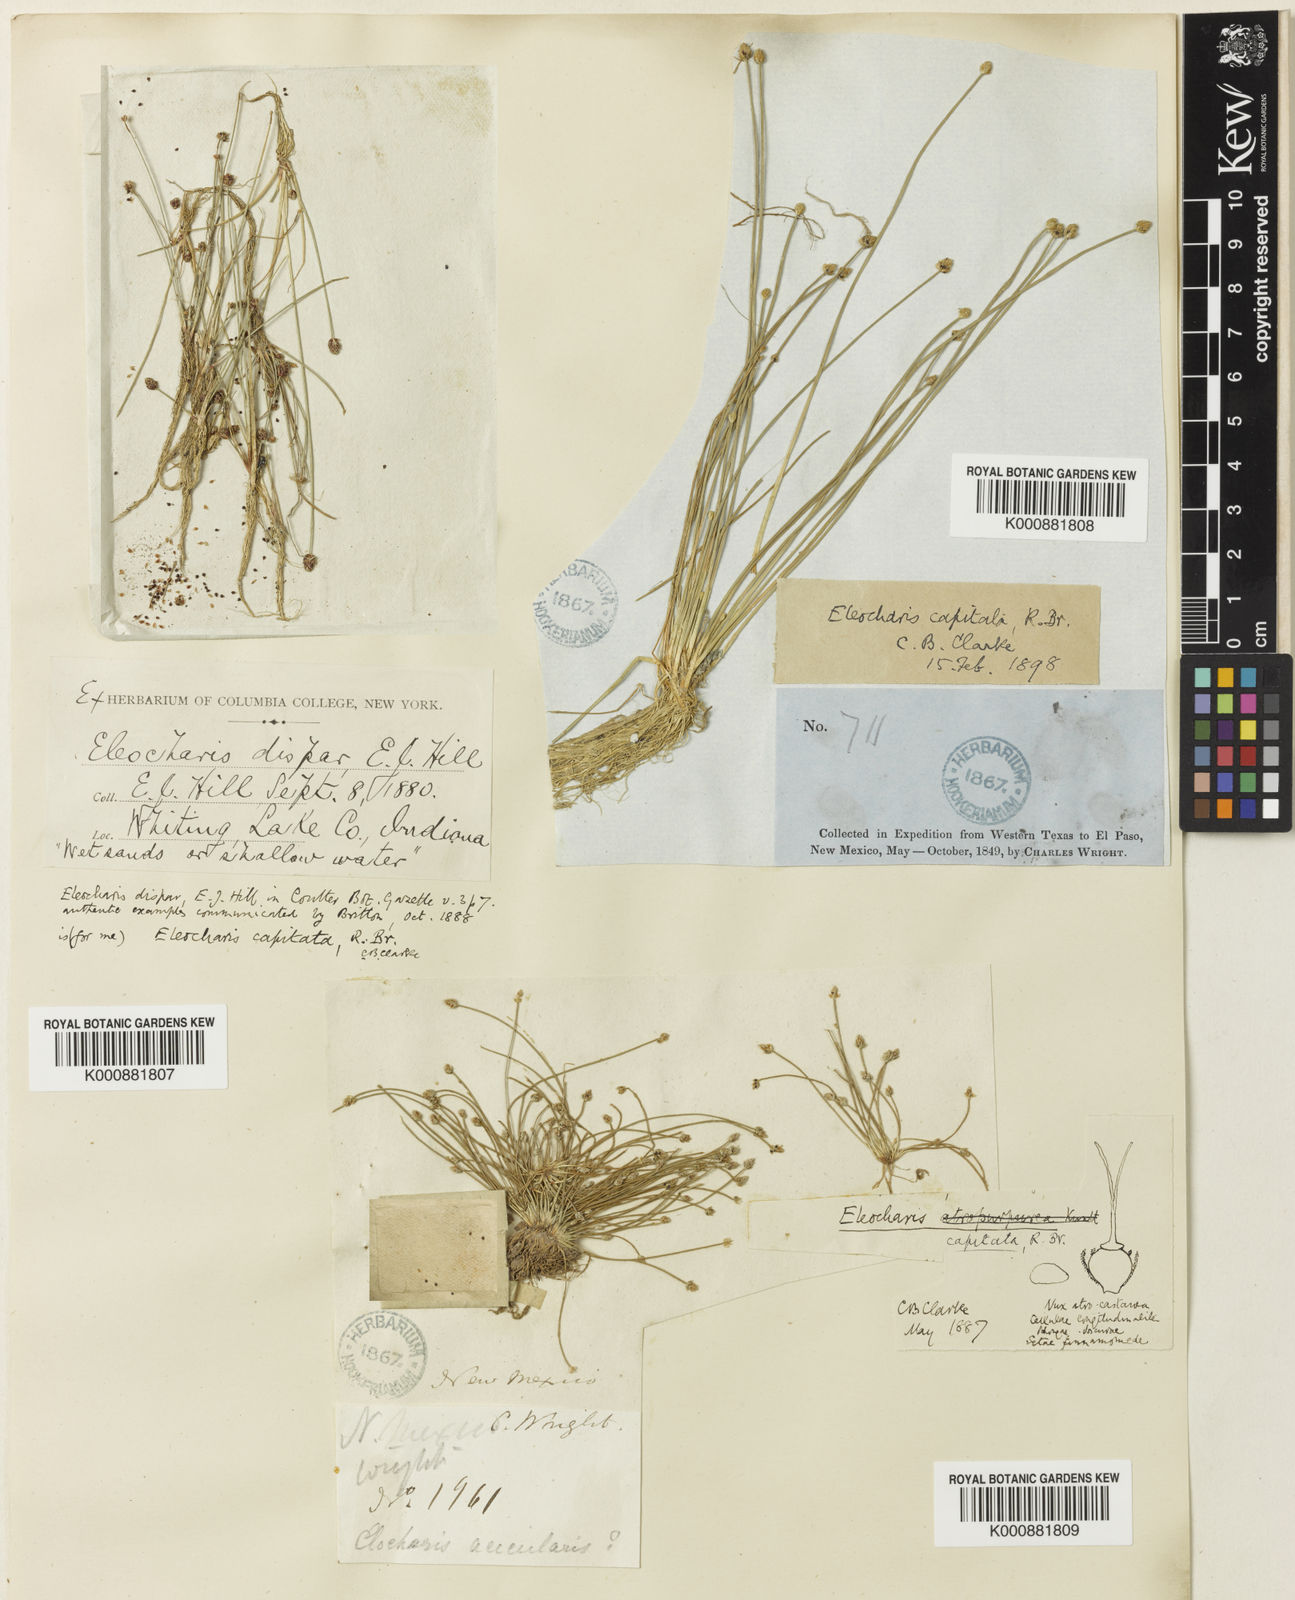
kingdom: Plantae
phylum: Tracheophyta
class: Liliopsida
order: Poales
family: Cyperaceae
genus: Eleocharis
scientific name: Eleocharis geniculata
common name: Canada spikesedge
